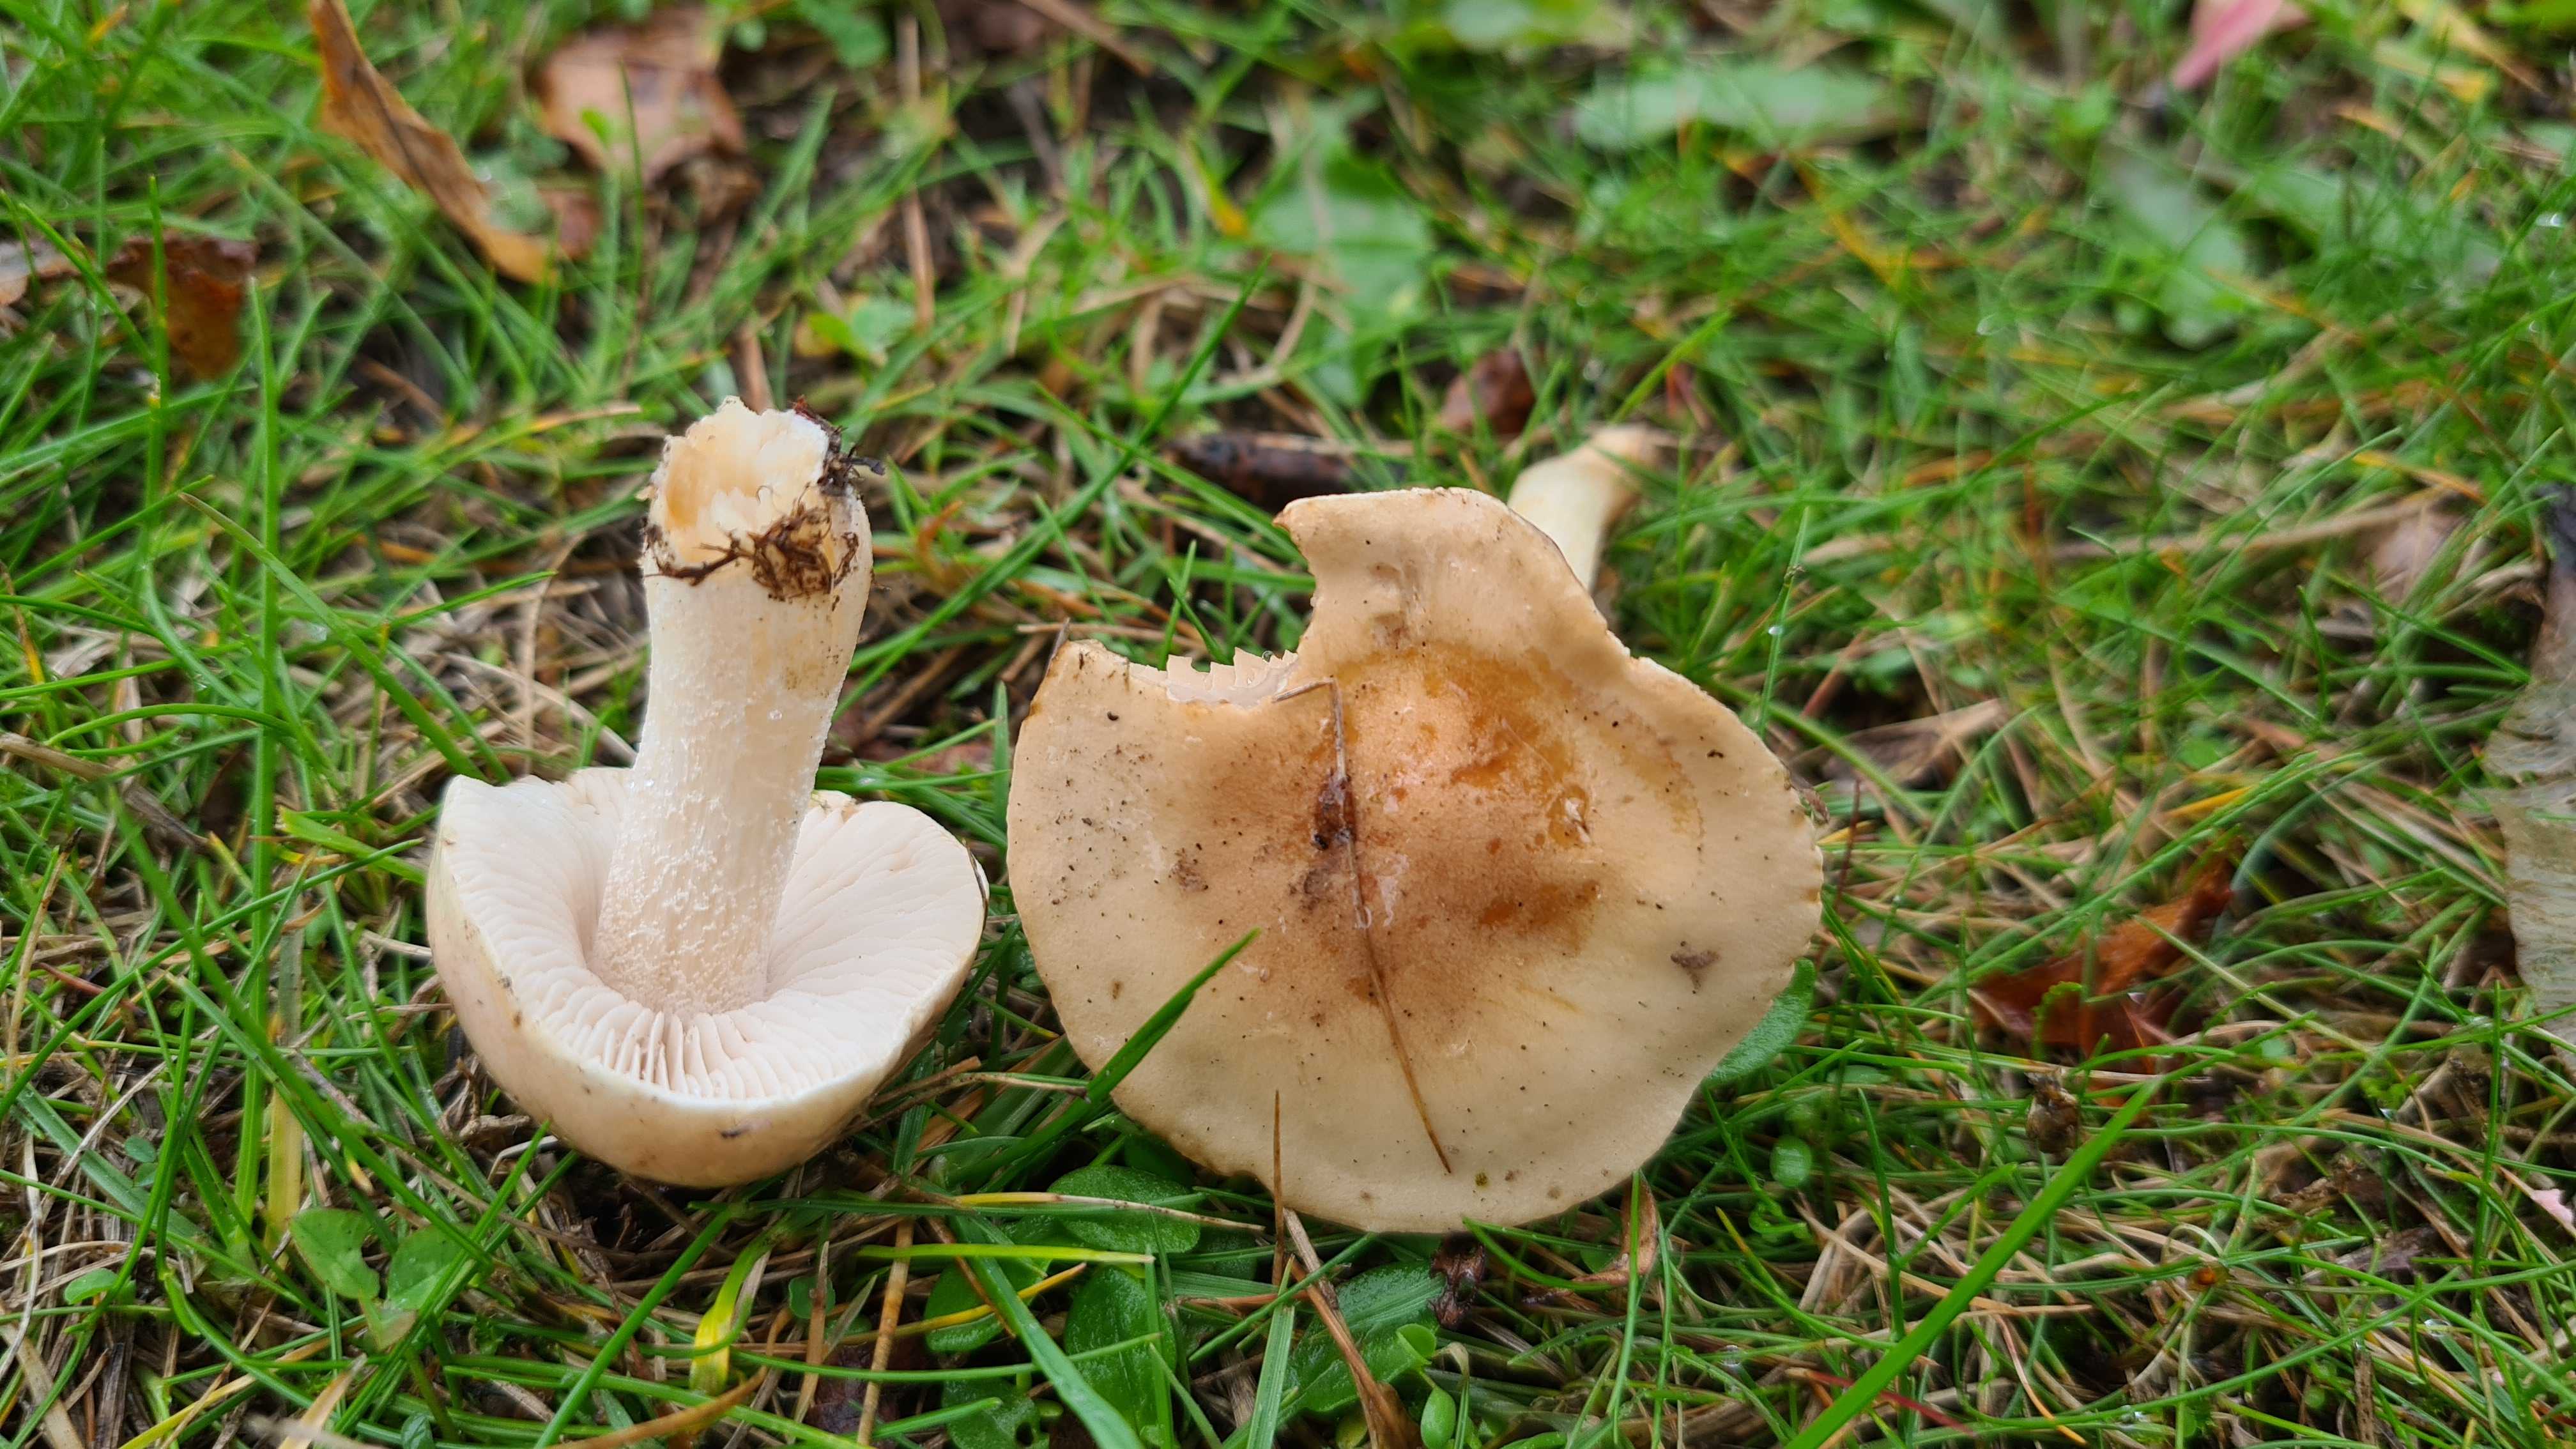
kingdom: Fungi
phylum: Basidiomycota
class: Agaricomycetes
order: Agaricales
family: Hymenogastraceae
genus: Hebeloma
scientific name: Hebeloma
